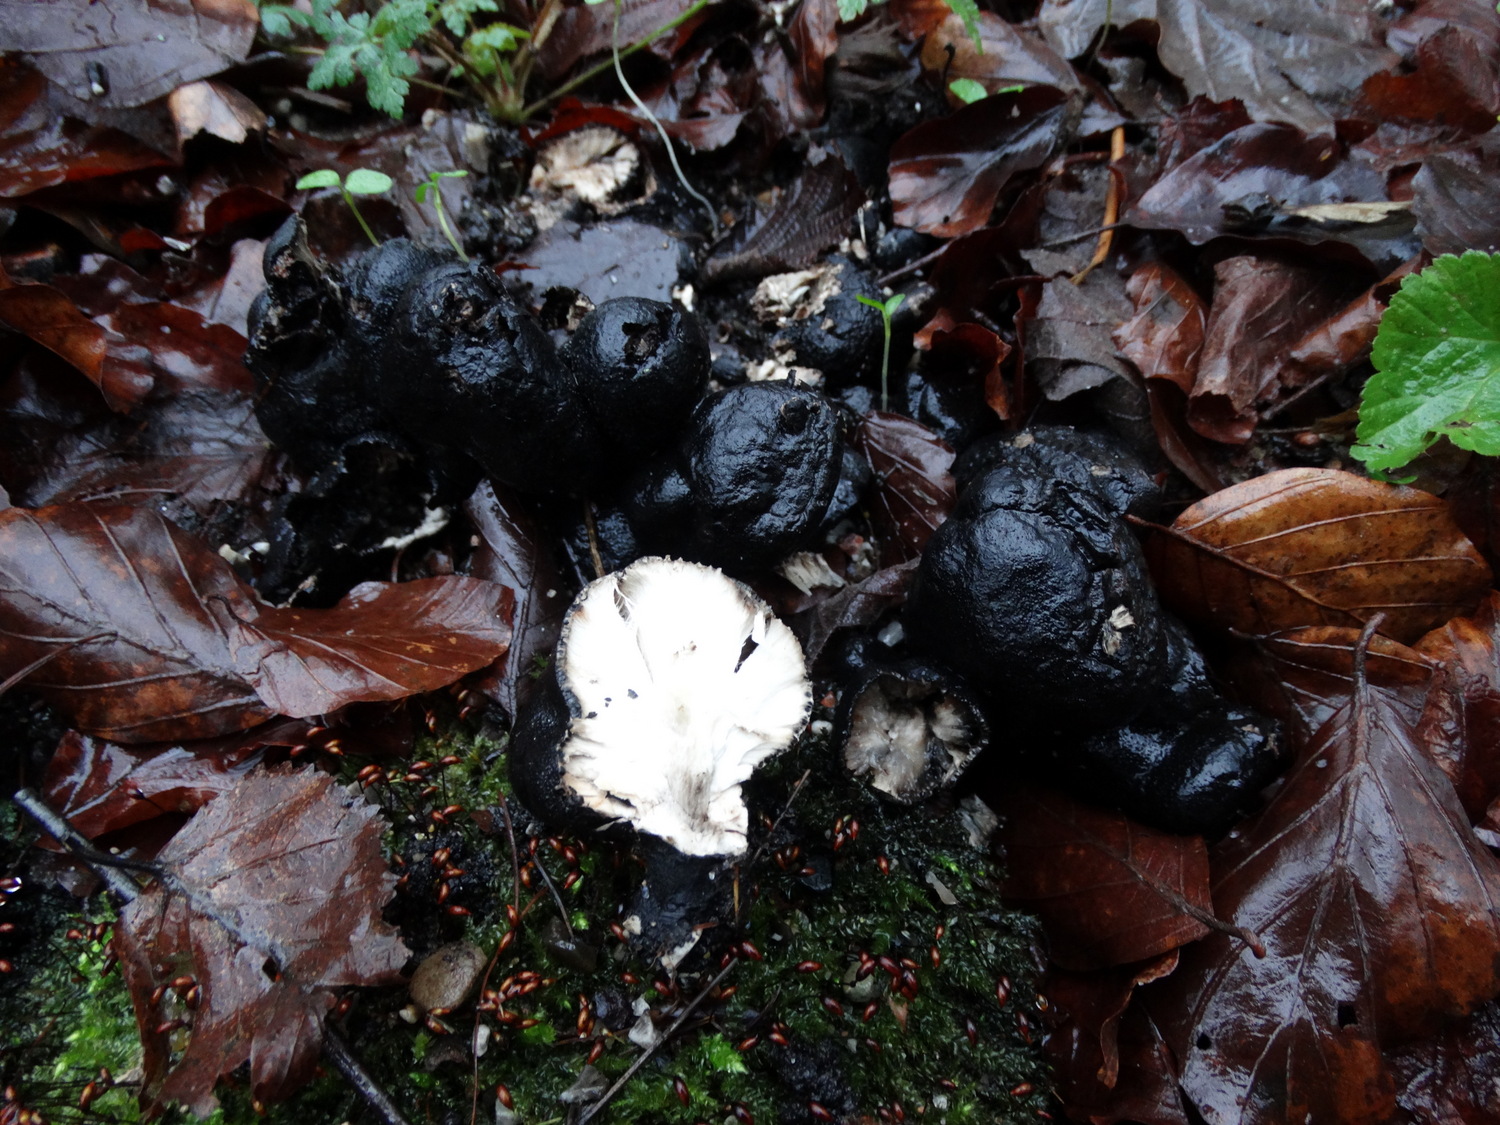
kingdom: Fungi
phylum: Ascomycota
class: Sordariomycetes
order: Xylariales
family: Xylariaceae
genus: Xylaria
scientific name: Xylaria polymorpha
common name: kølle-stødsvamp
